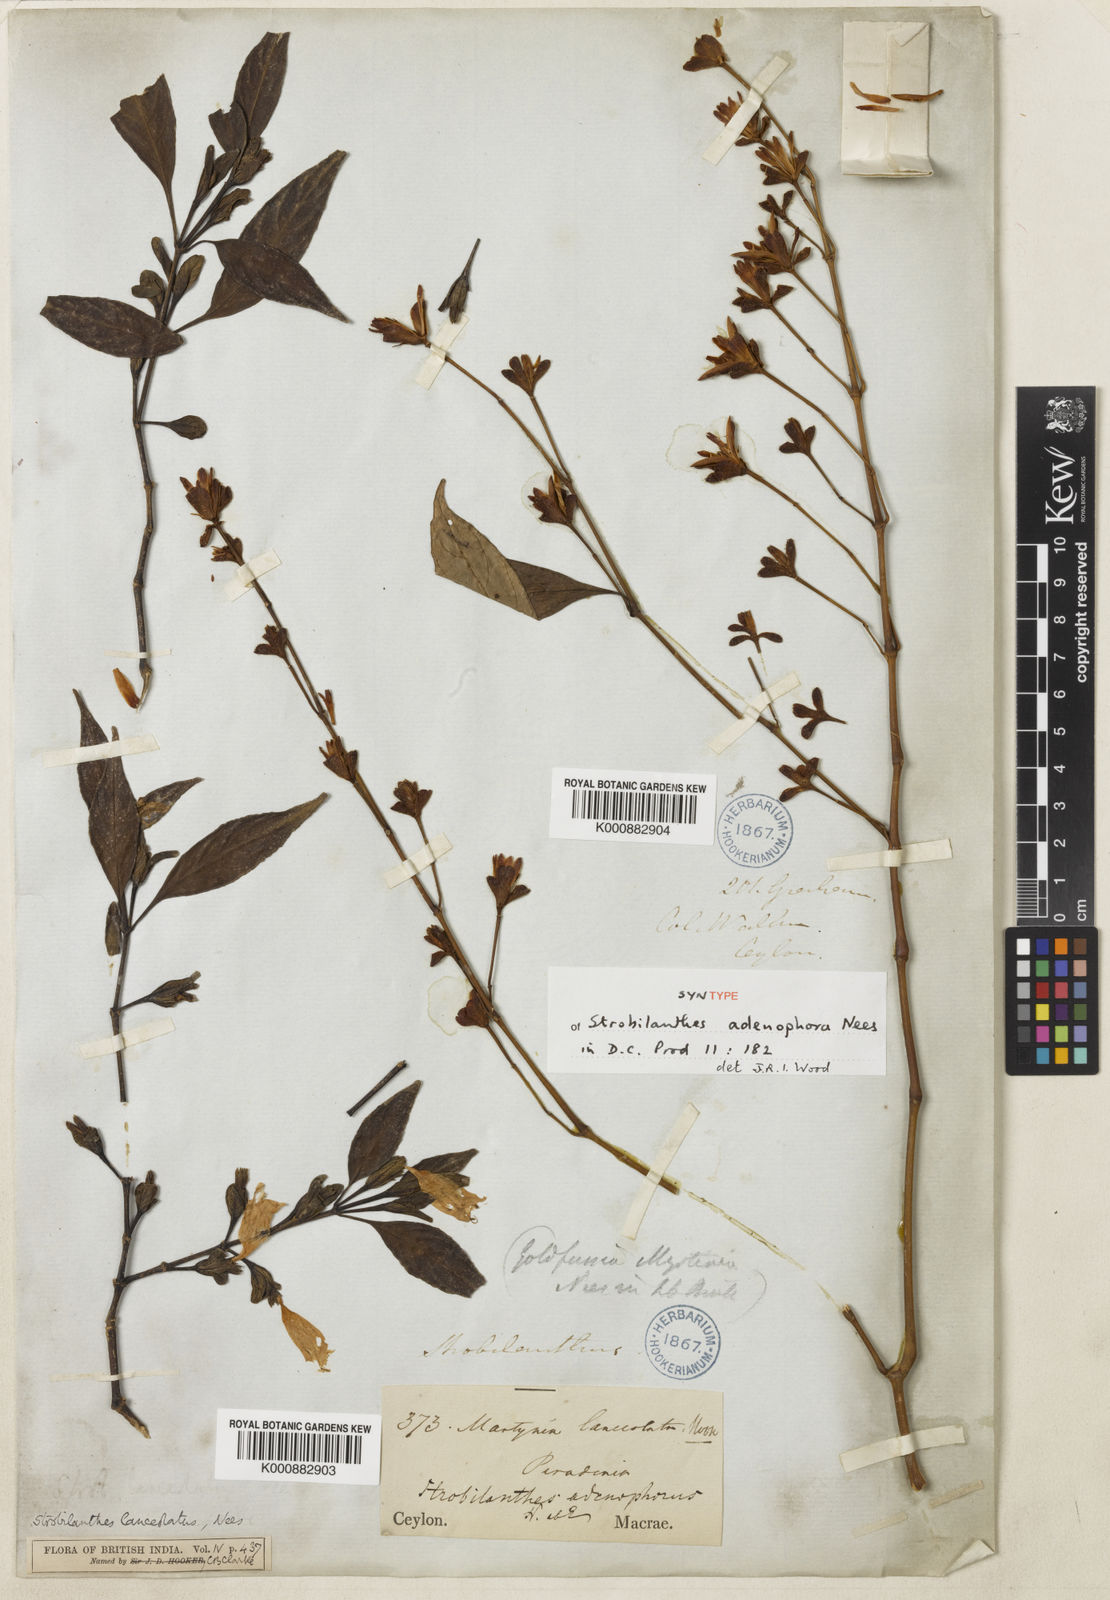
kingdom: Plantae
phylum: Tracheophyta
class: Magnoliopsida
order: Lamiales
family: Acanthaceae
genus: Strobilanthes
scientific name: Strobilanthes adenophora
